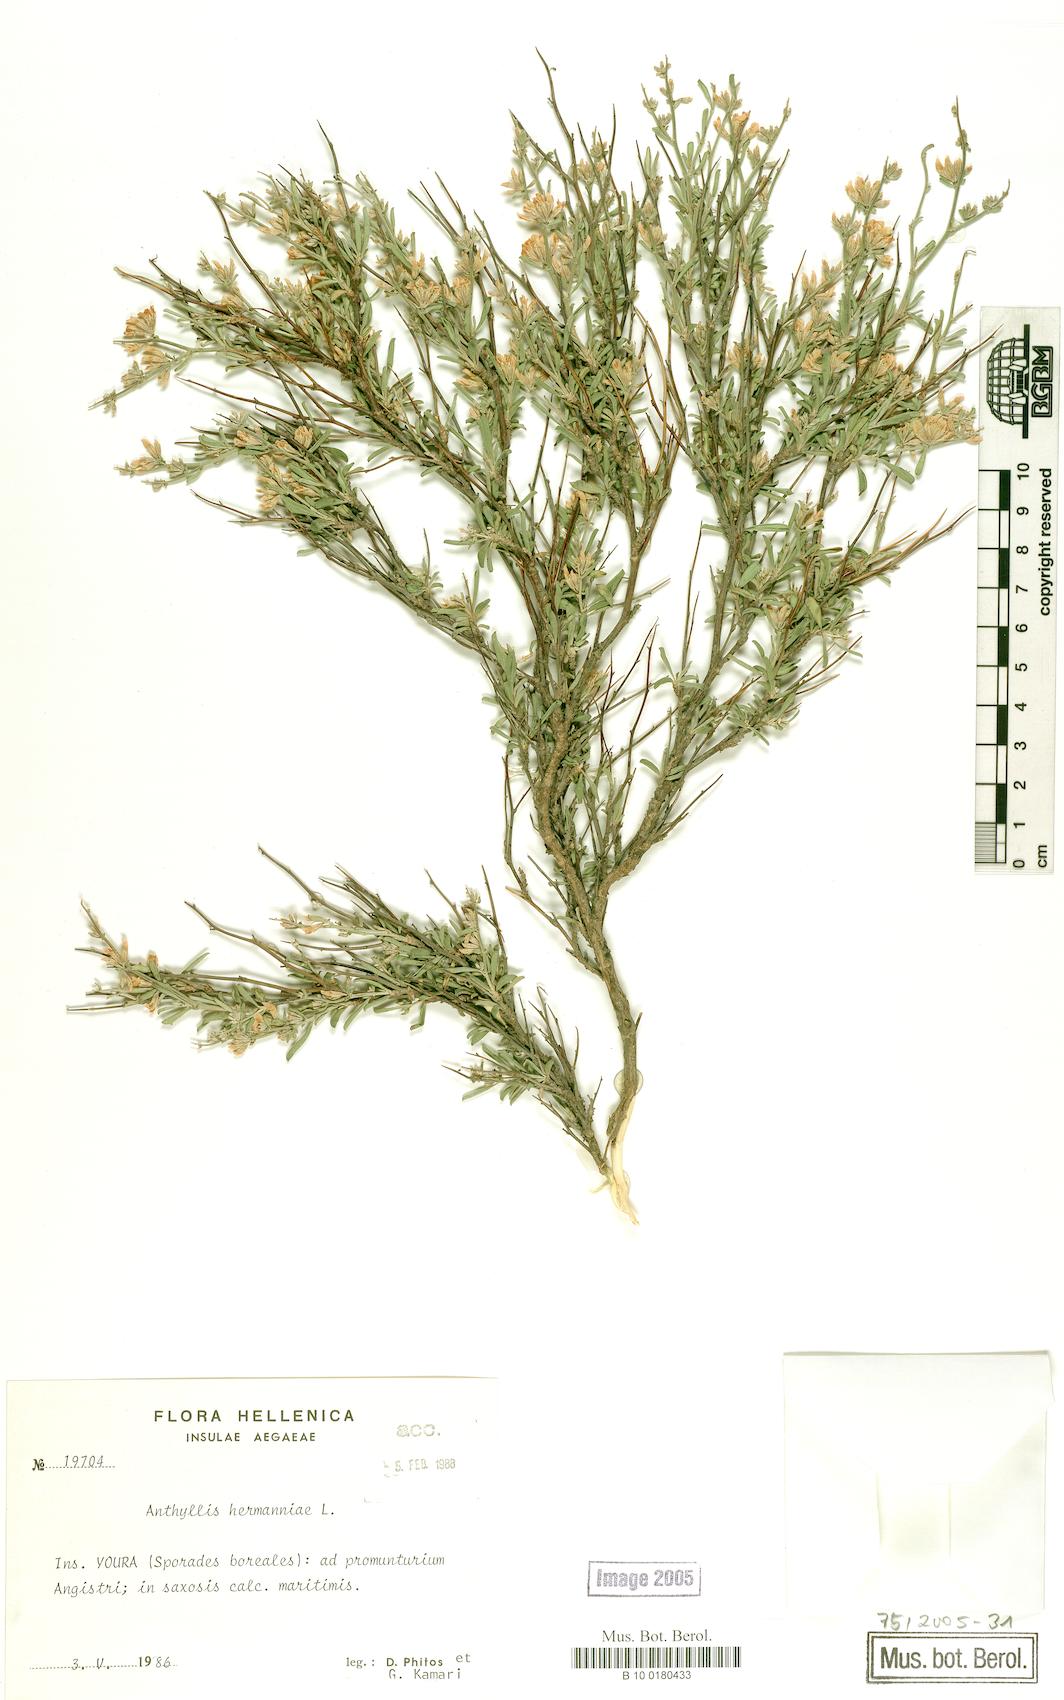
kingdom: Plantae
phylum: Tracheophyta
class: Magnoliopsida
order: Fabales
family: Fabaceae
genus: Anthyllis
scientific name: Anthyllis hermanniae
